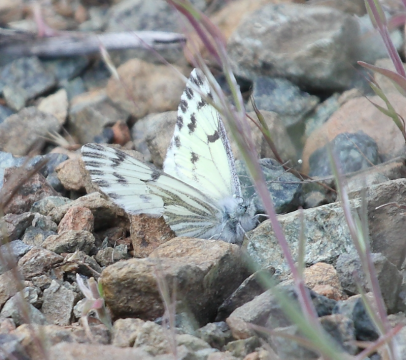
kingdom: Animalia
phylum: Arthropoda
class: Insecta
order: Lepidoptera
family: Pieridae
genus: Pontia
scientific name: Pontia sisymbrii
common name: Spring White
